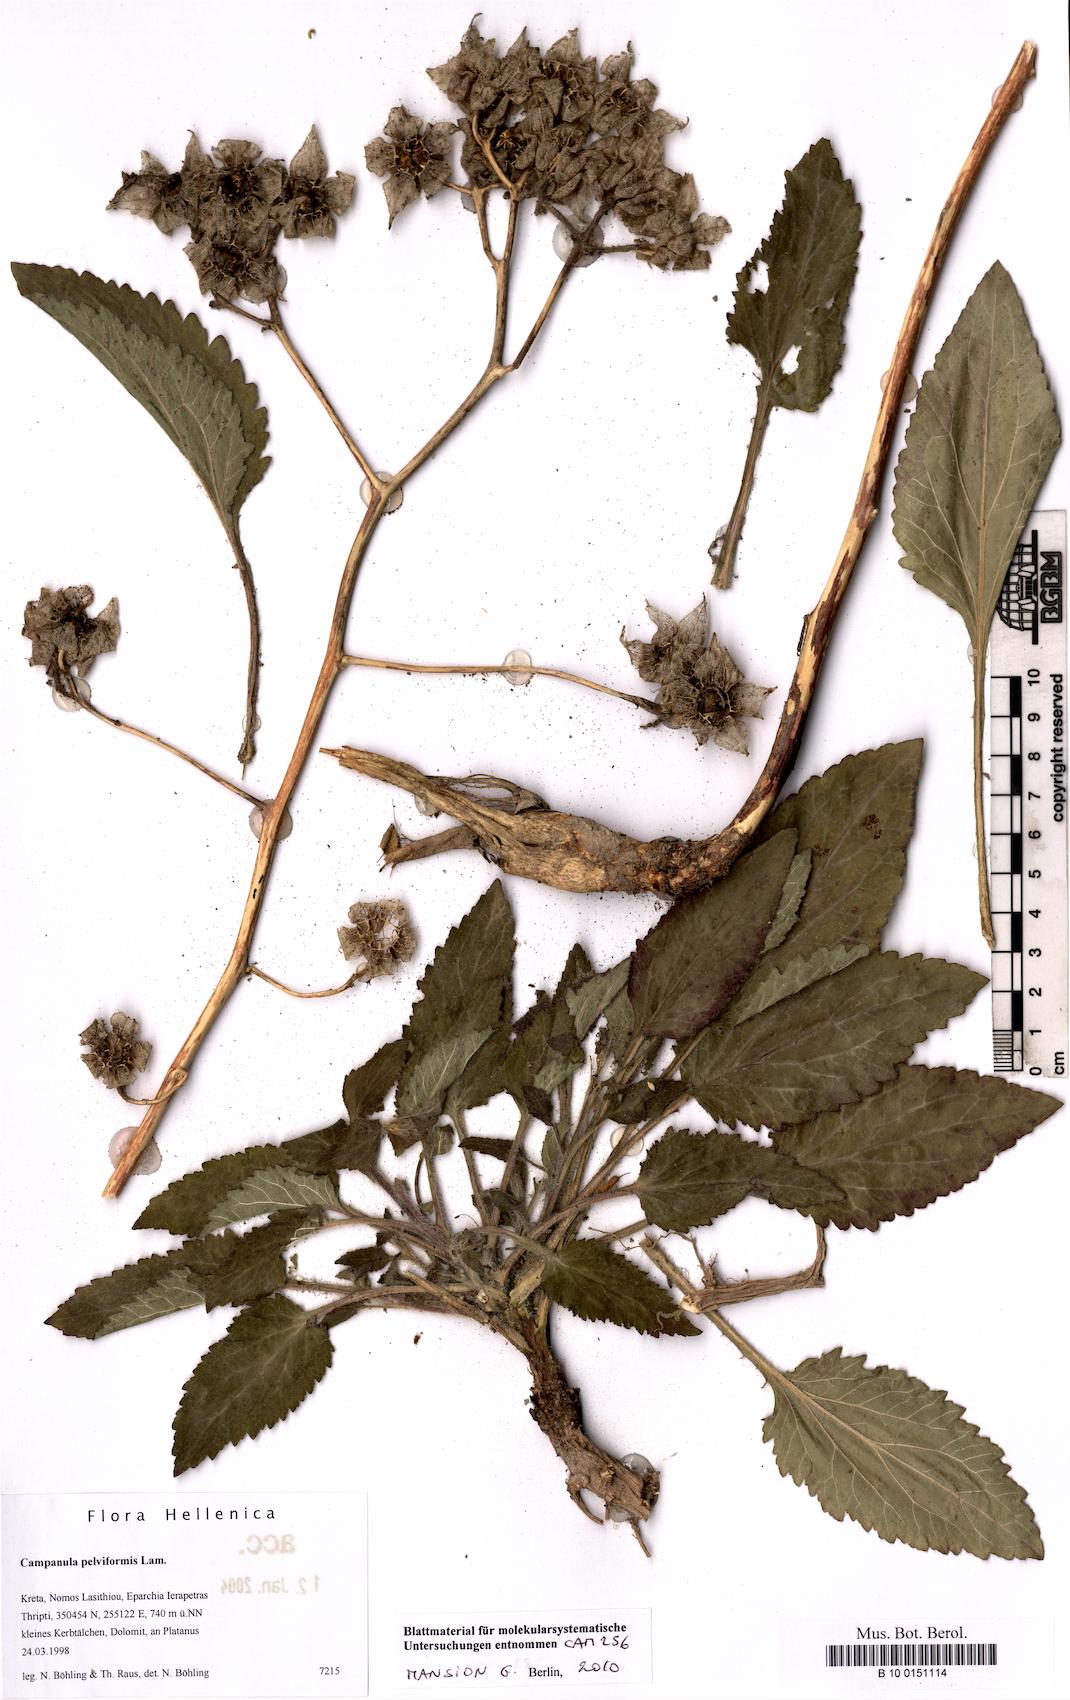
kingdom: Plantae
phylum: Tracheophyta
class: Magnoliopsida
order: Asterales
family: Campanulaceae
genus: Campanula
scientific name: Campanula pelviformis
